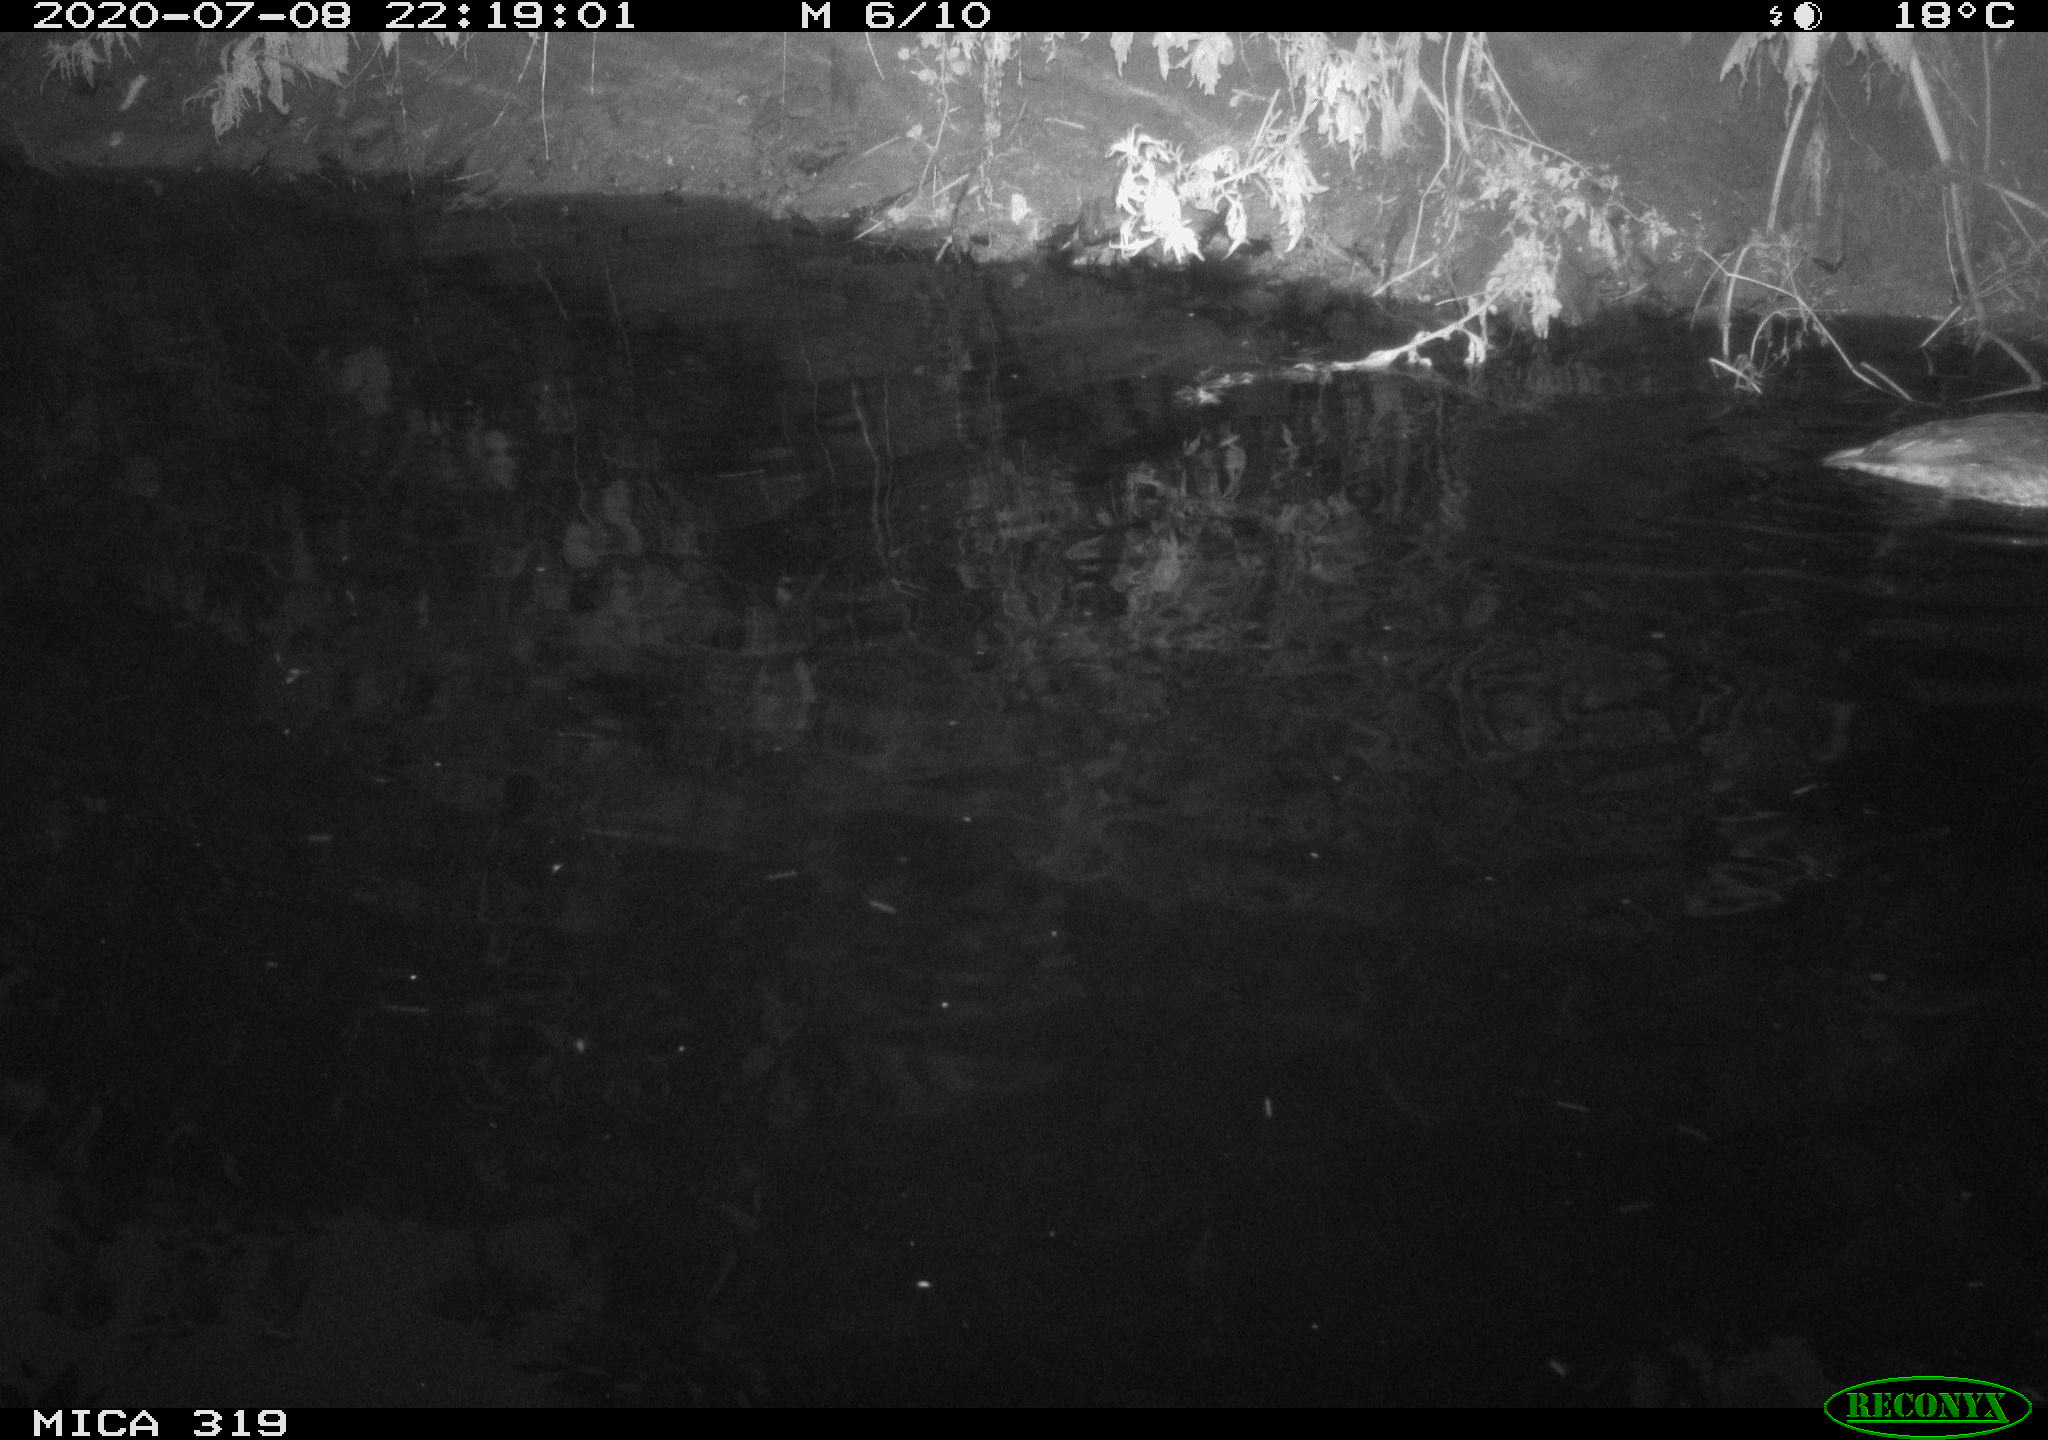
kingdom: Animalia
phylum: Chordata
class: Aves
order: Anseriformes
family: Anatidae
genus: Anas
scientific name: Anas platyrhynchos
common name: Mallard
